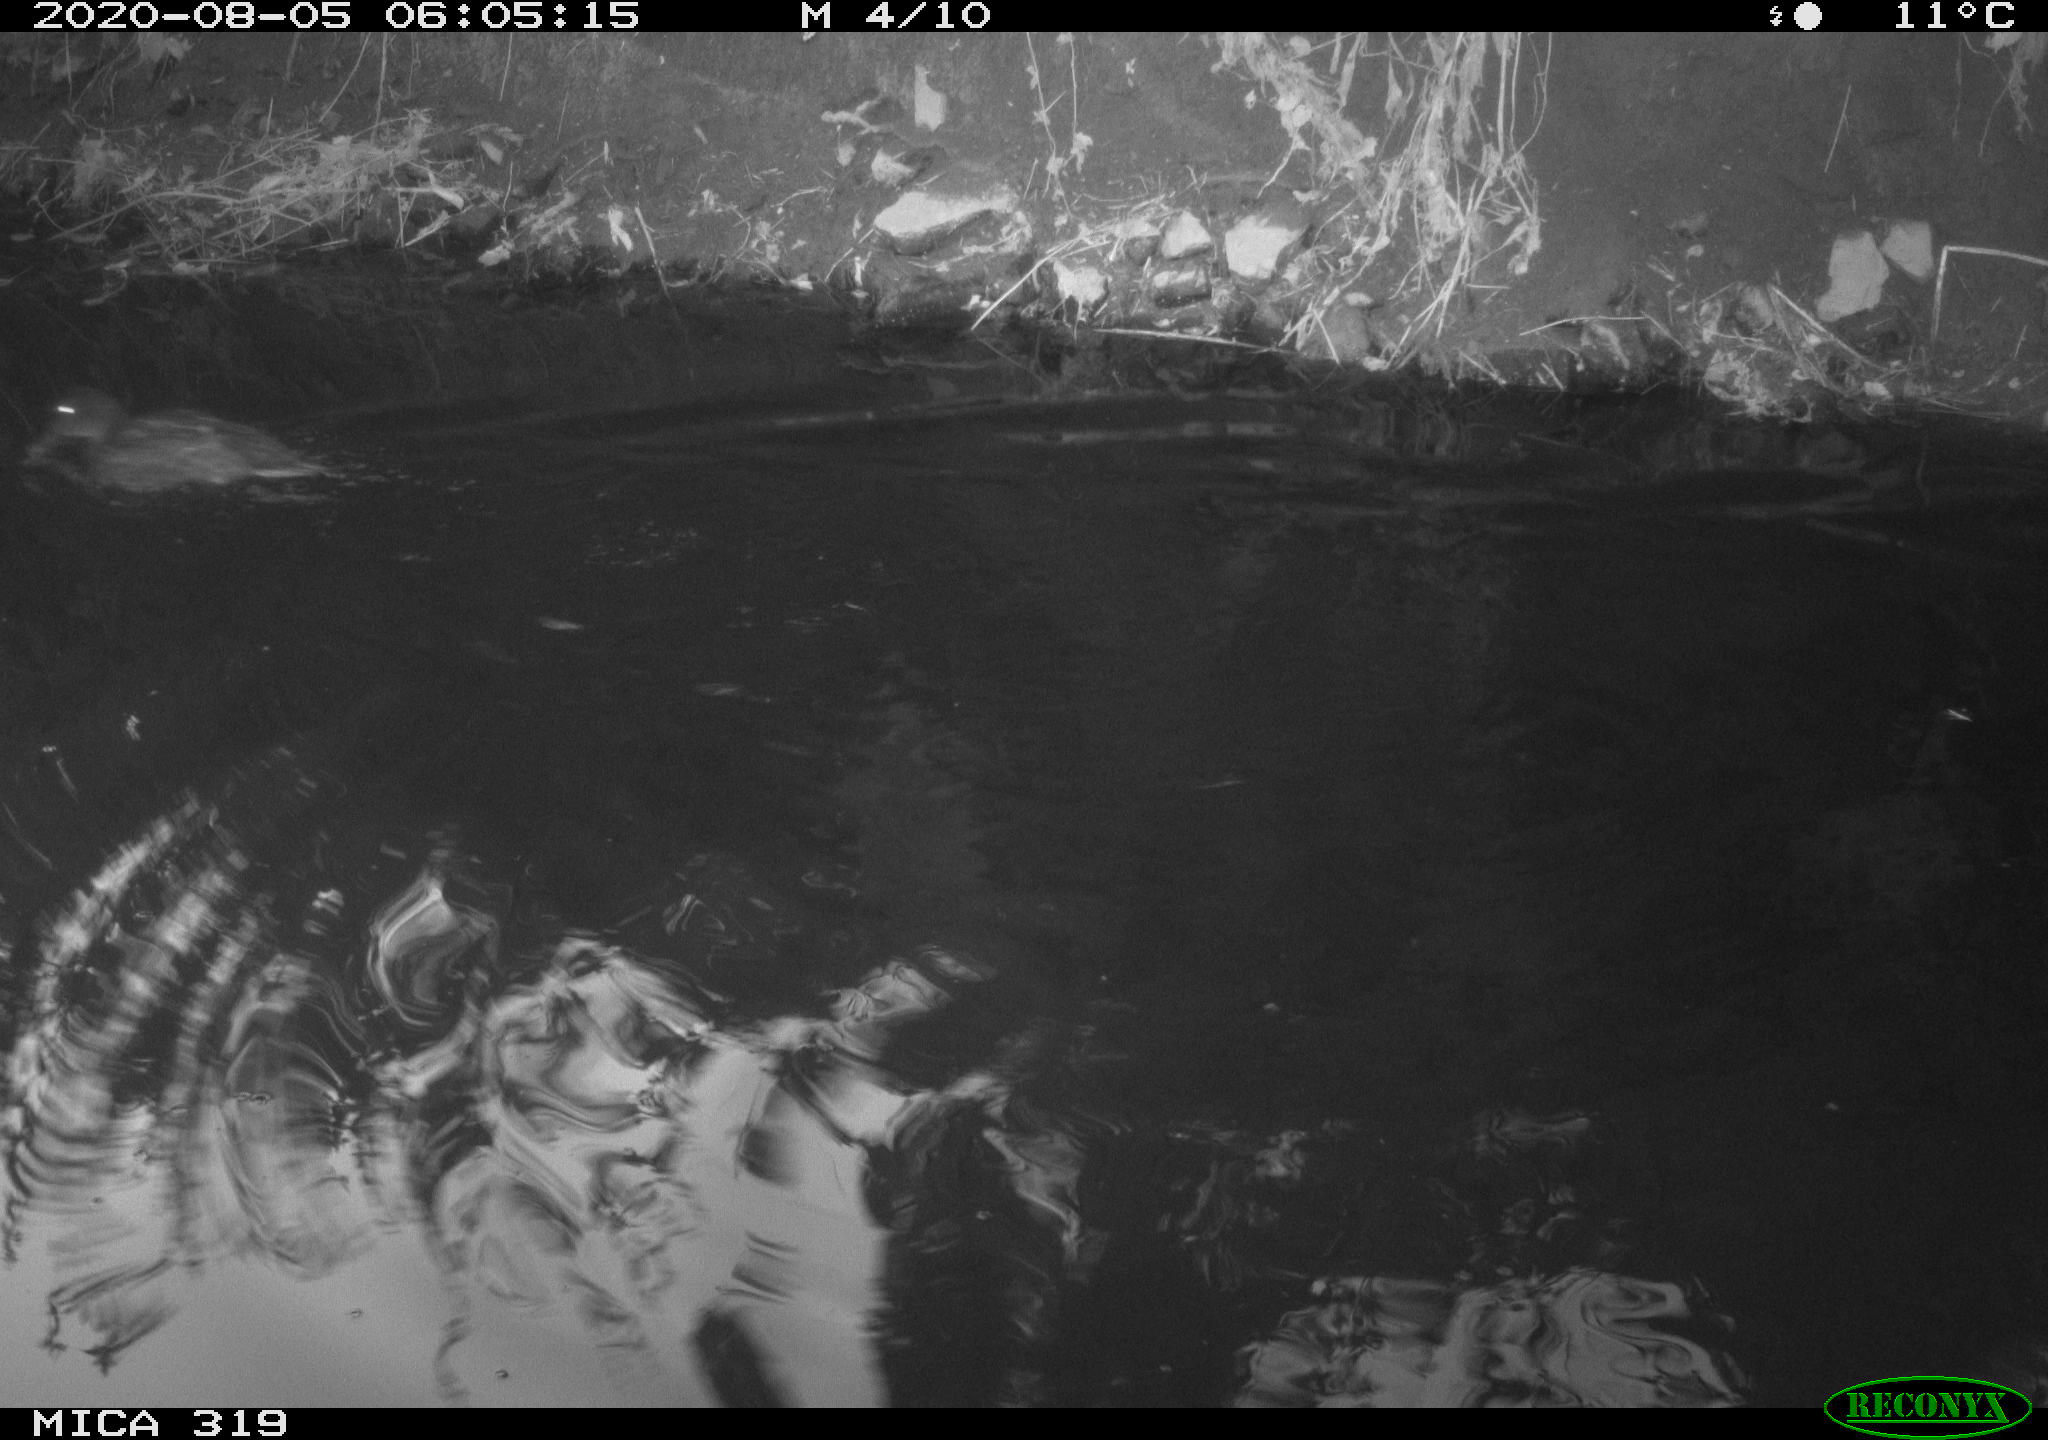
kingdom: Animalia
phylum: Chordata
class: Aves
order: Anseriformes
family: Anatidae
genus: Anas
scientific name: Anas platyrhynchos
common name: Mallard
